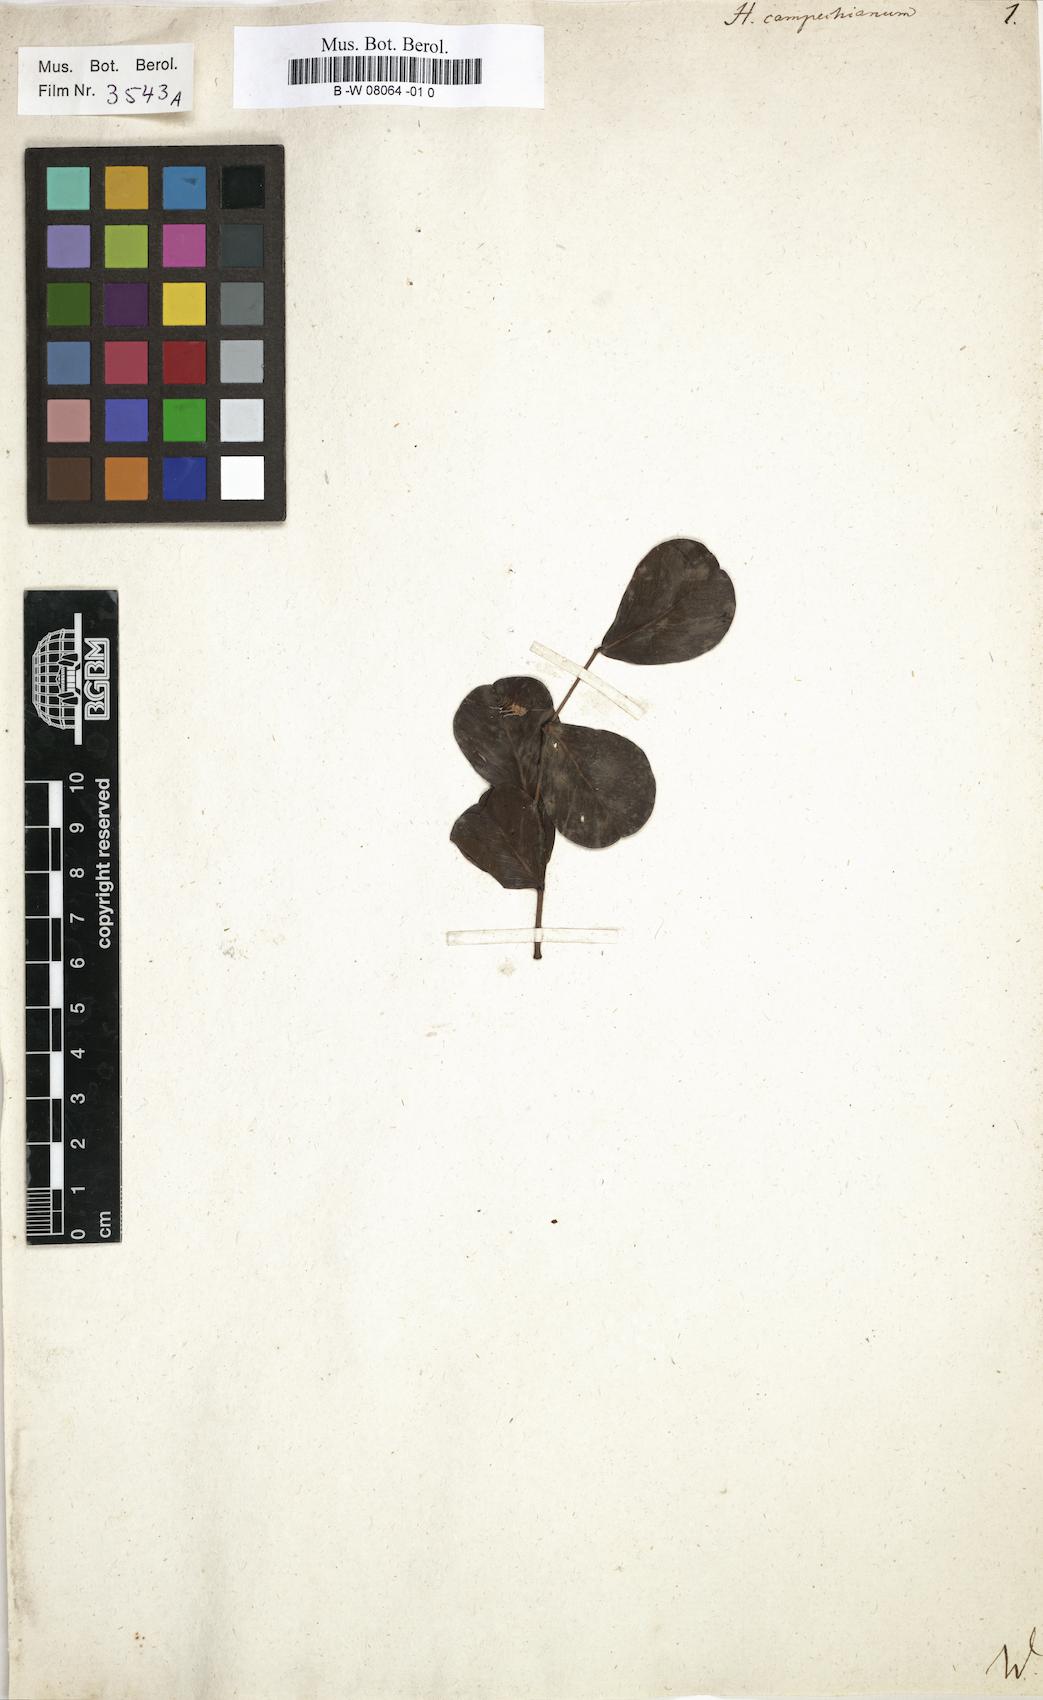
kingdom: Plantae
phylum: Tracheophyta
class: Magnoliopsida
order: Fabales
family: Fabaceae
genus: Haematoxylum
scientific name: Haematoxylum campechianum
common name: Logwood
